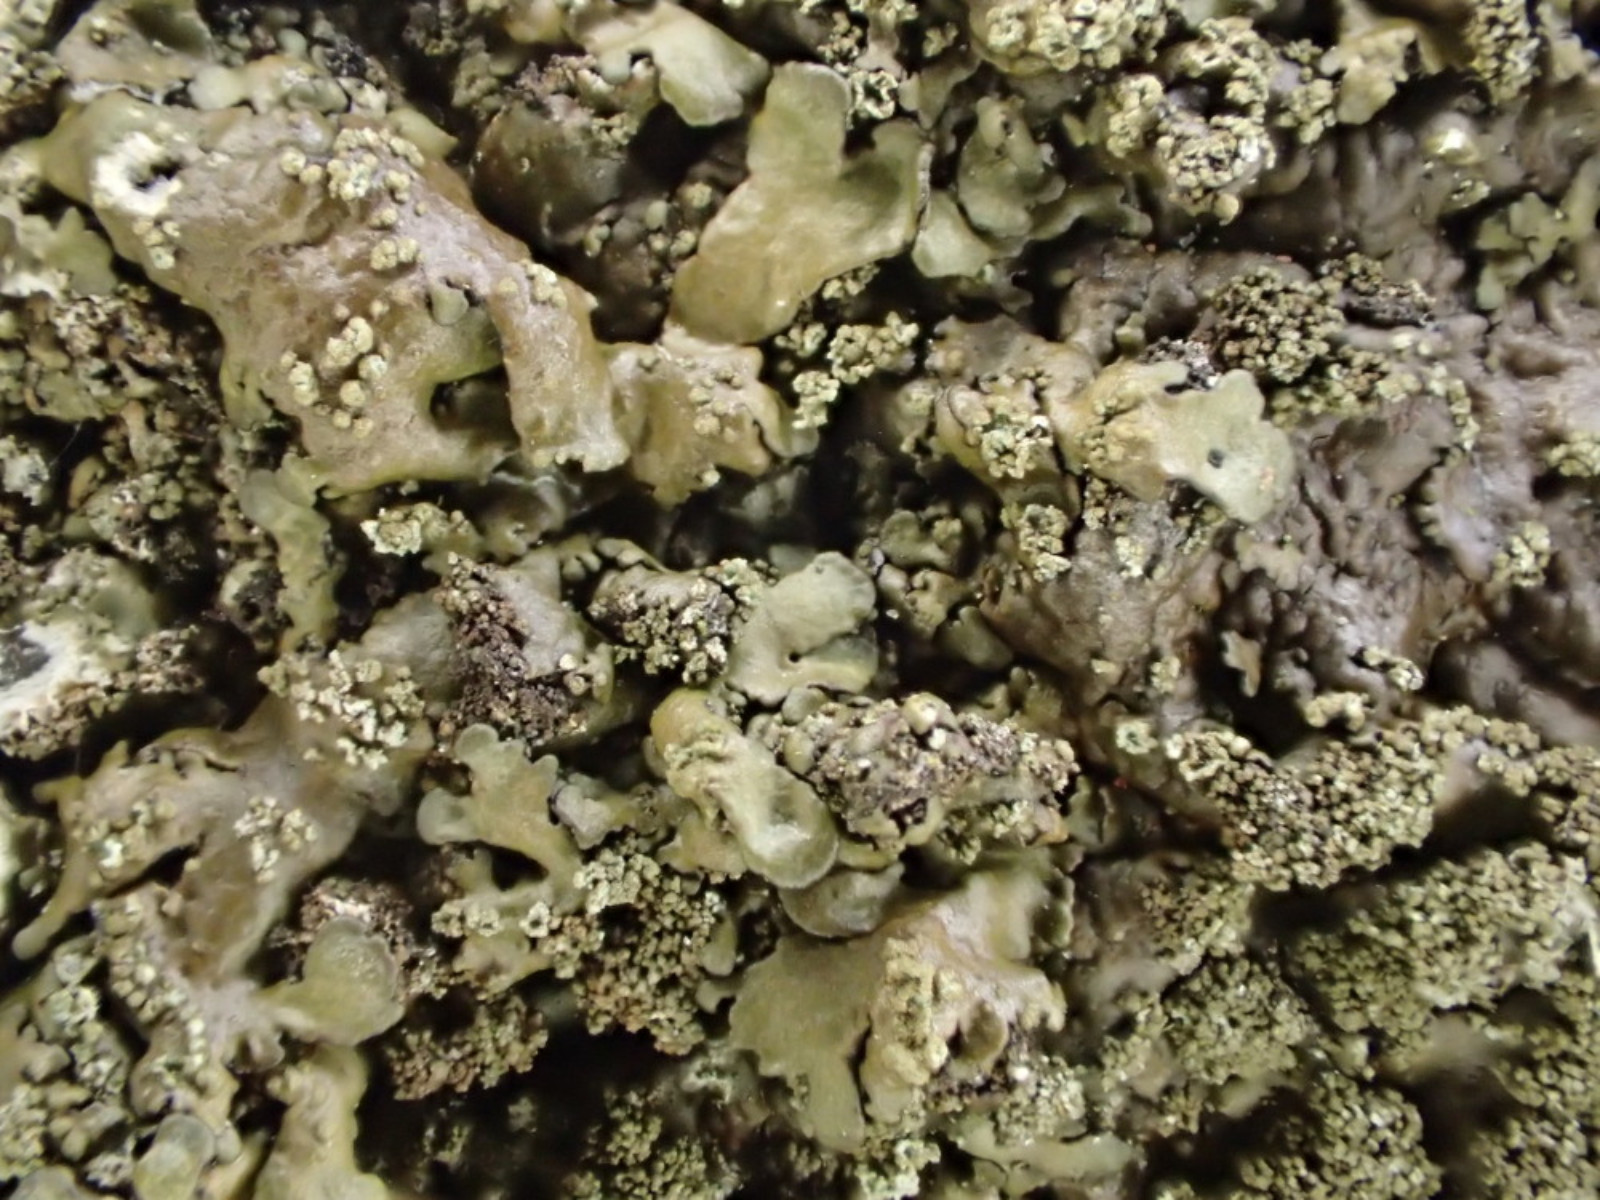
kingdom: Fungi
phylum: Ascomycota
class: Lecanoromycetes
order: Lecanorales
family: Parmeliaceae
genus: Xanthoparmelia
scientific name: Xanthoparmelia verruculifera
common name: småknoppet skållav
